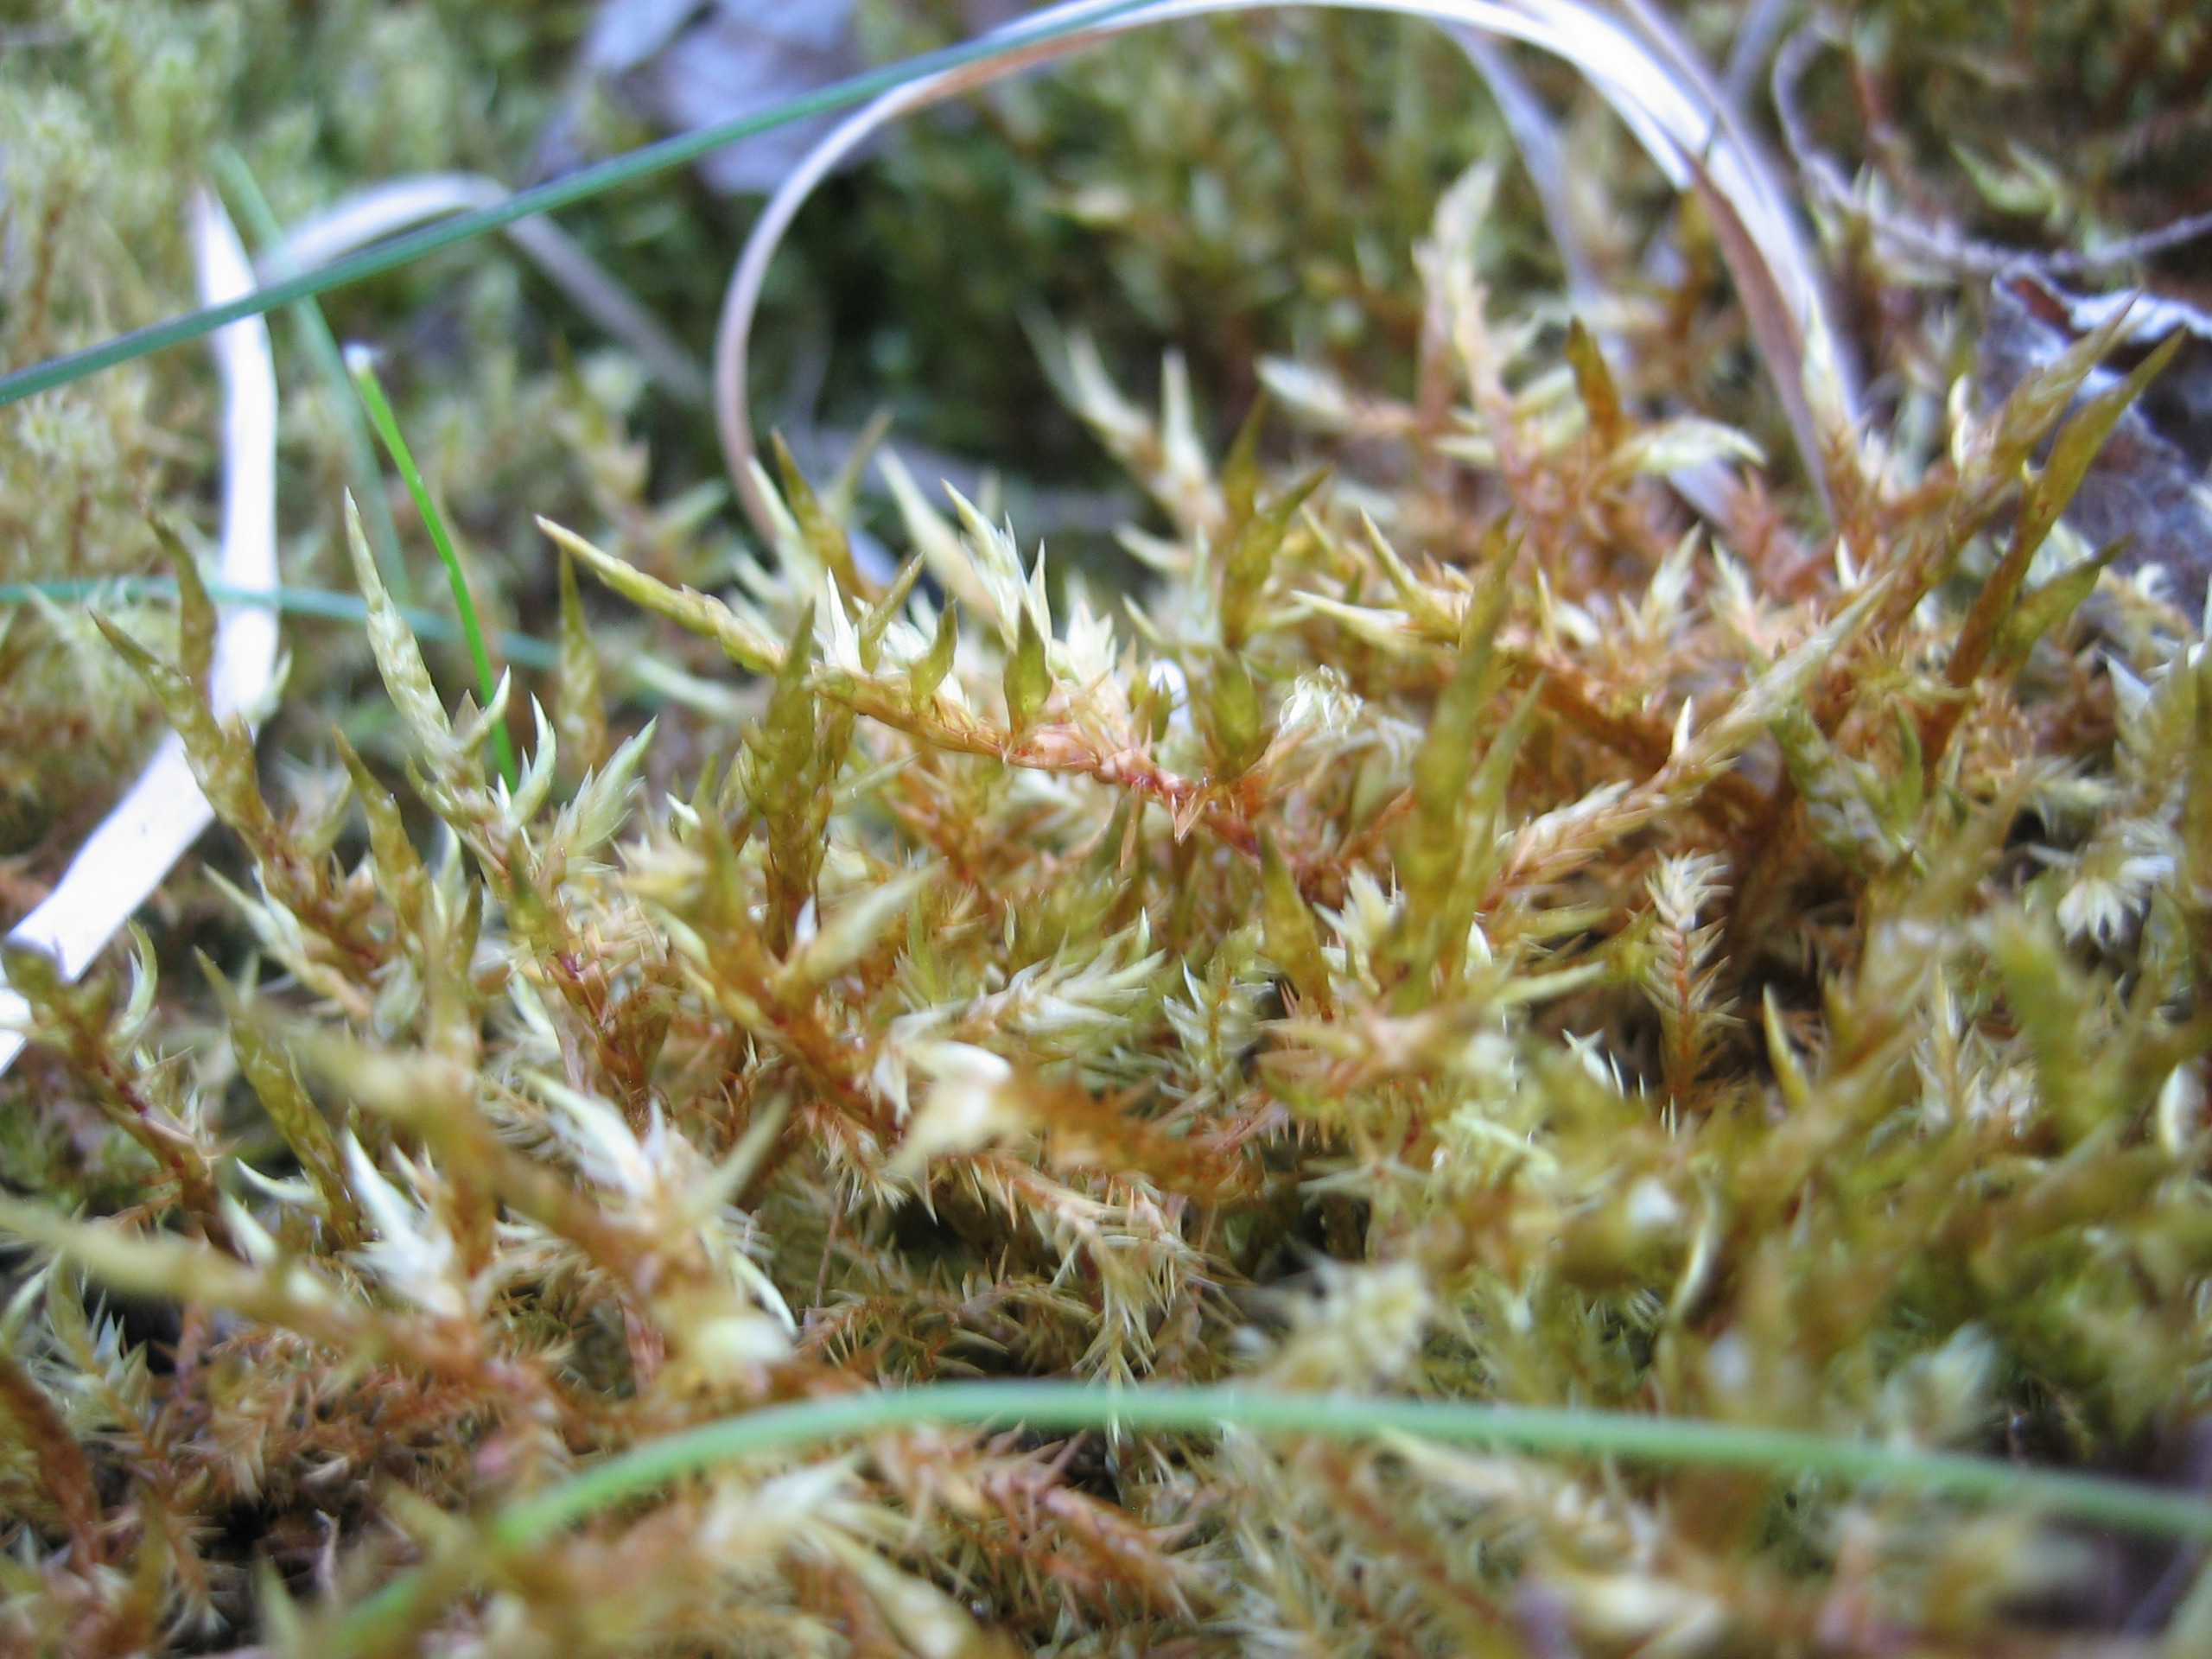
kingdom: Plantae
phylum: Bryophyta
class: Bryopsida
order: Hypnales
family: Pylaisiaceae
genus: Calliergonella
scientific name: Calliergonella cuspidata
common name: Spids spydmos
